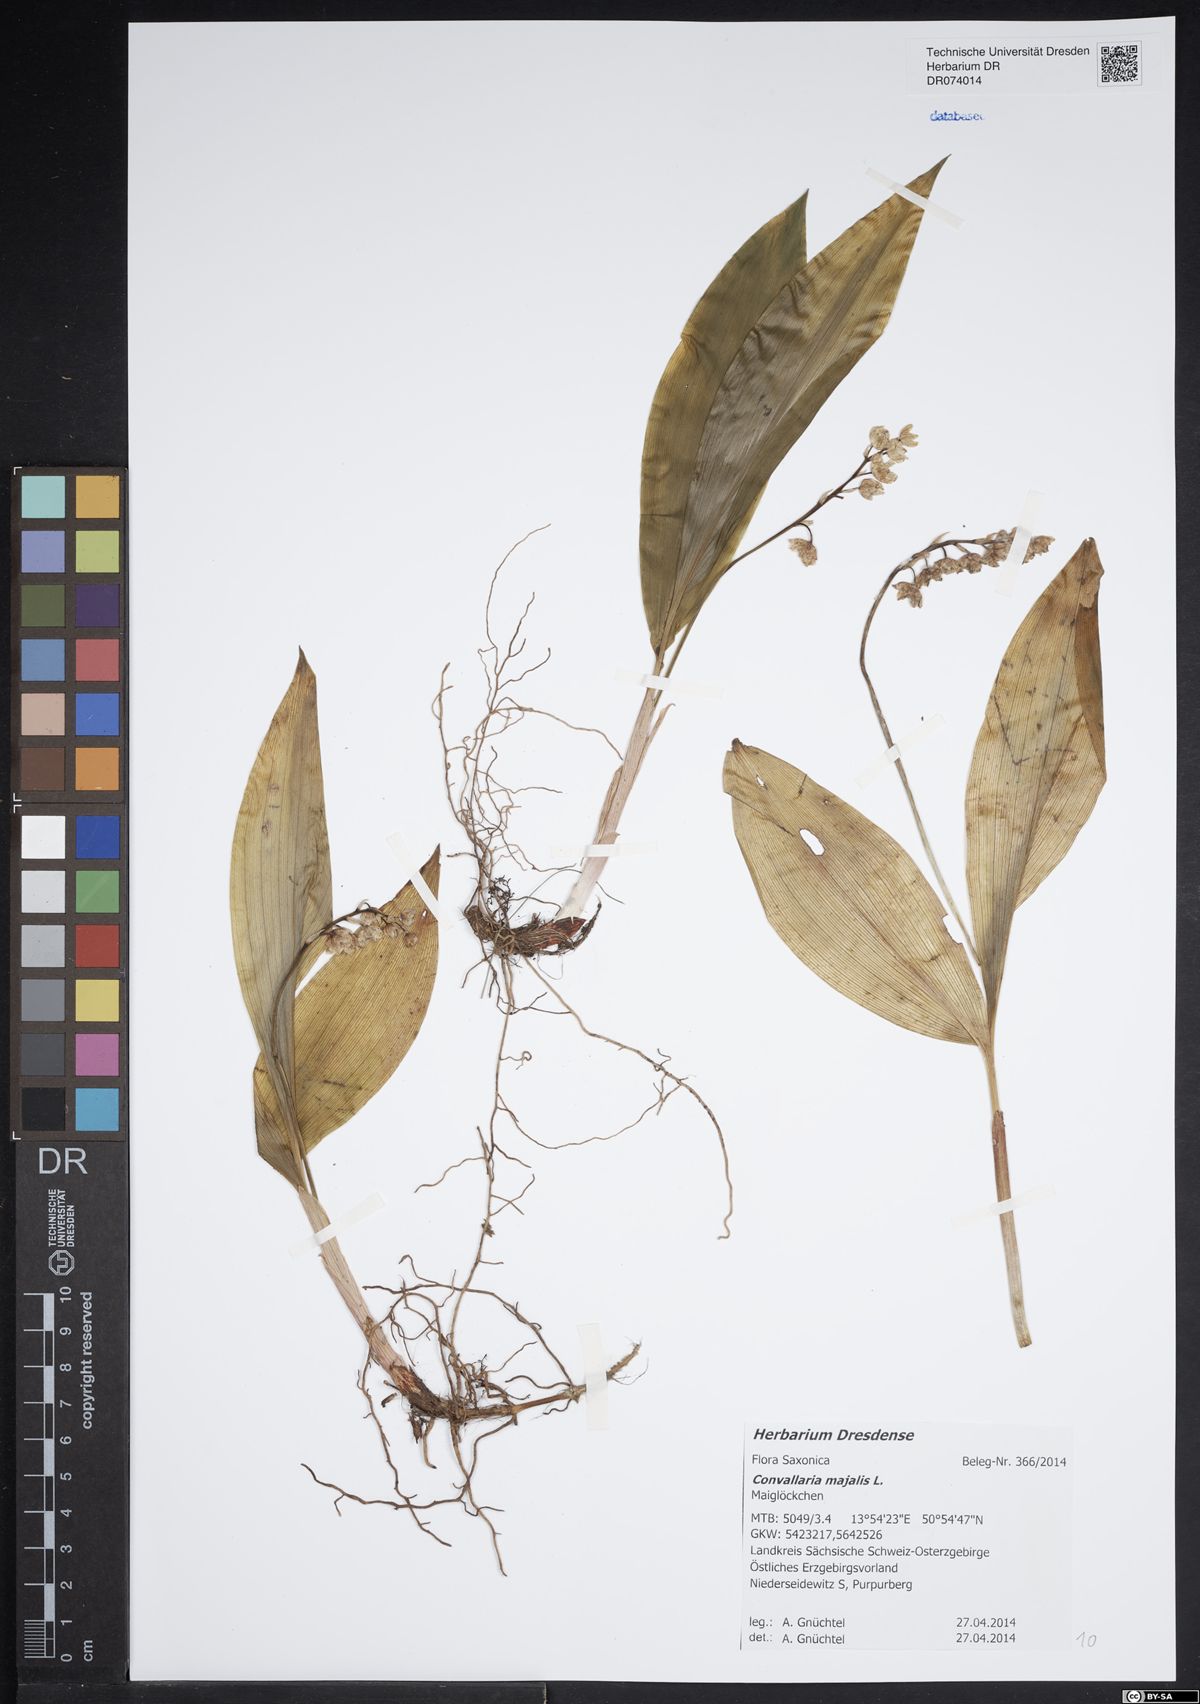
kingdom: Plantae
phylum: Tracheophyta
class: Liliopsida
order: Asparagales
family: Asparagaceae
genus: Convallaria
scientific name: Convallaria majalis
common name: Lily-of-the-valley
